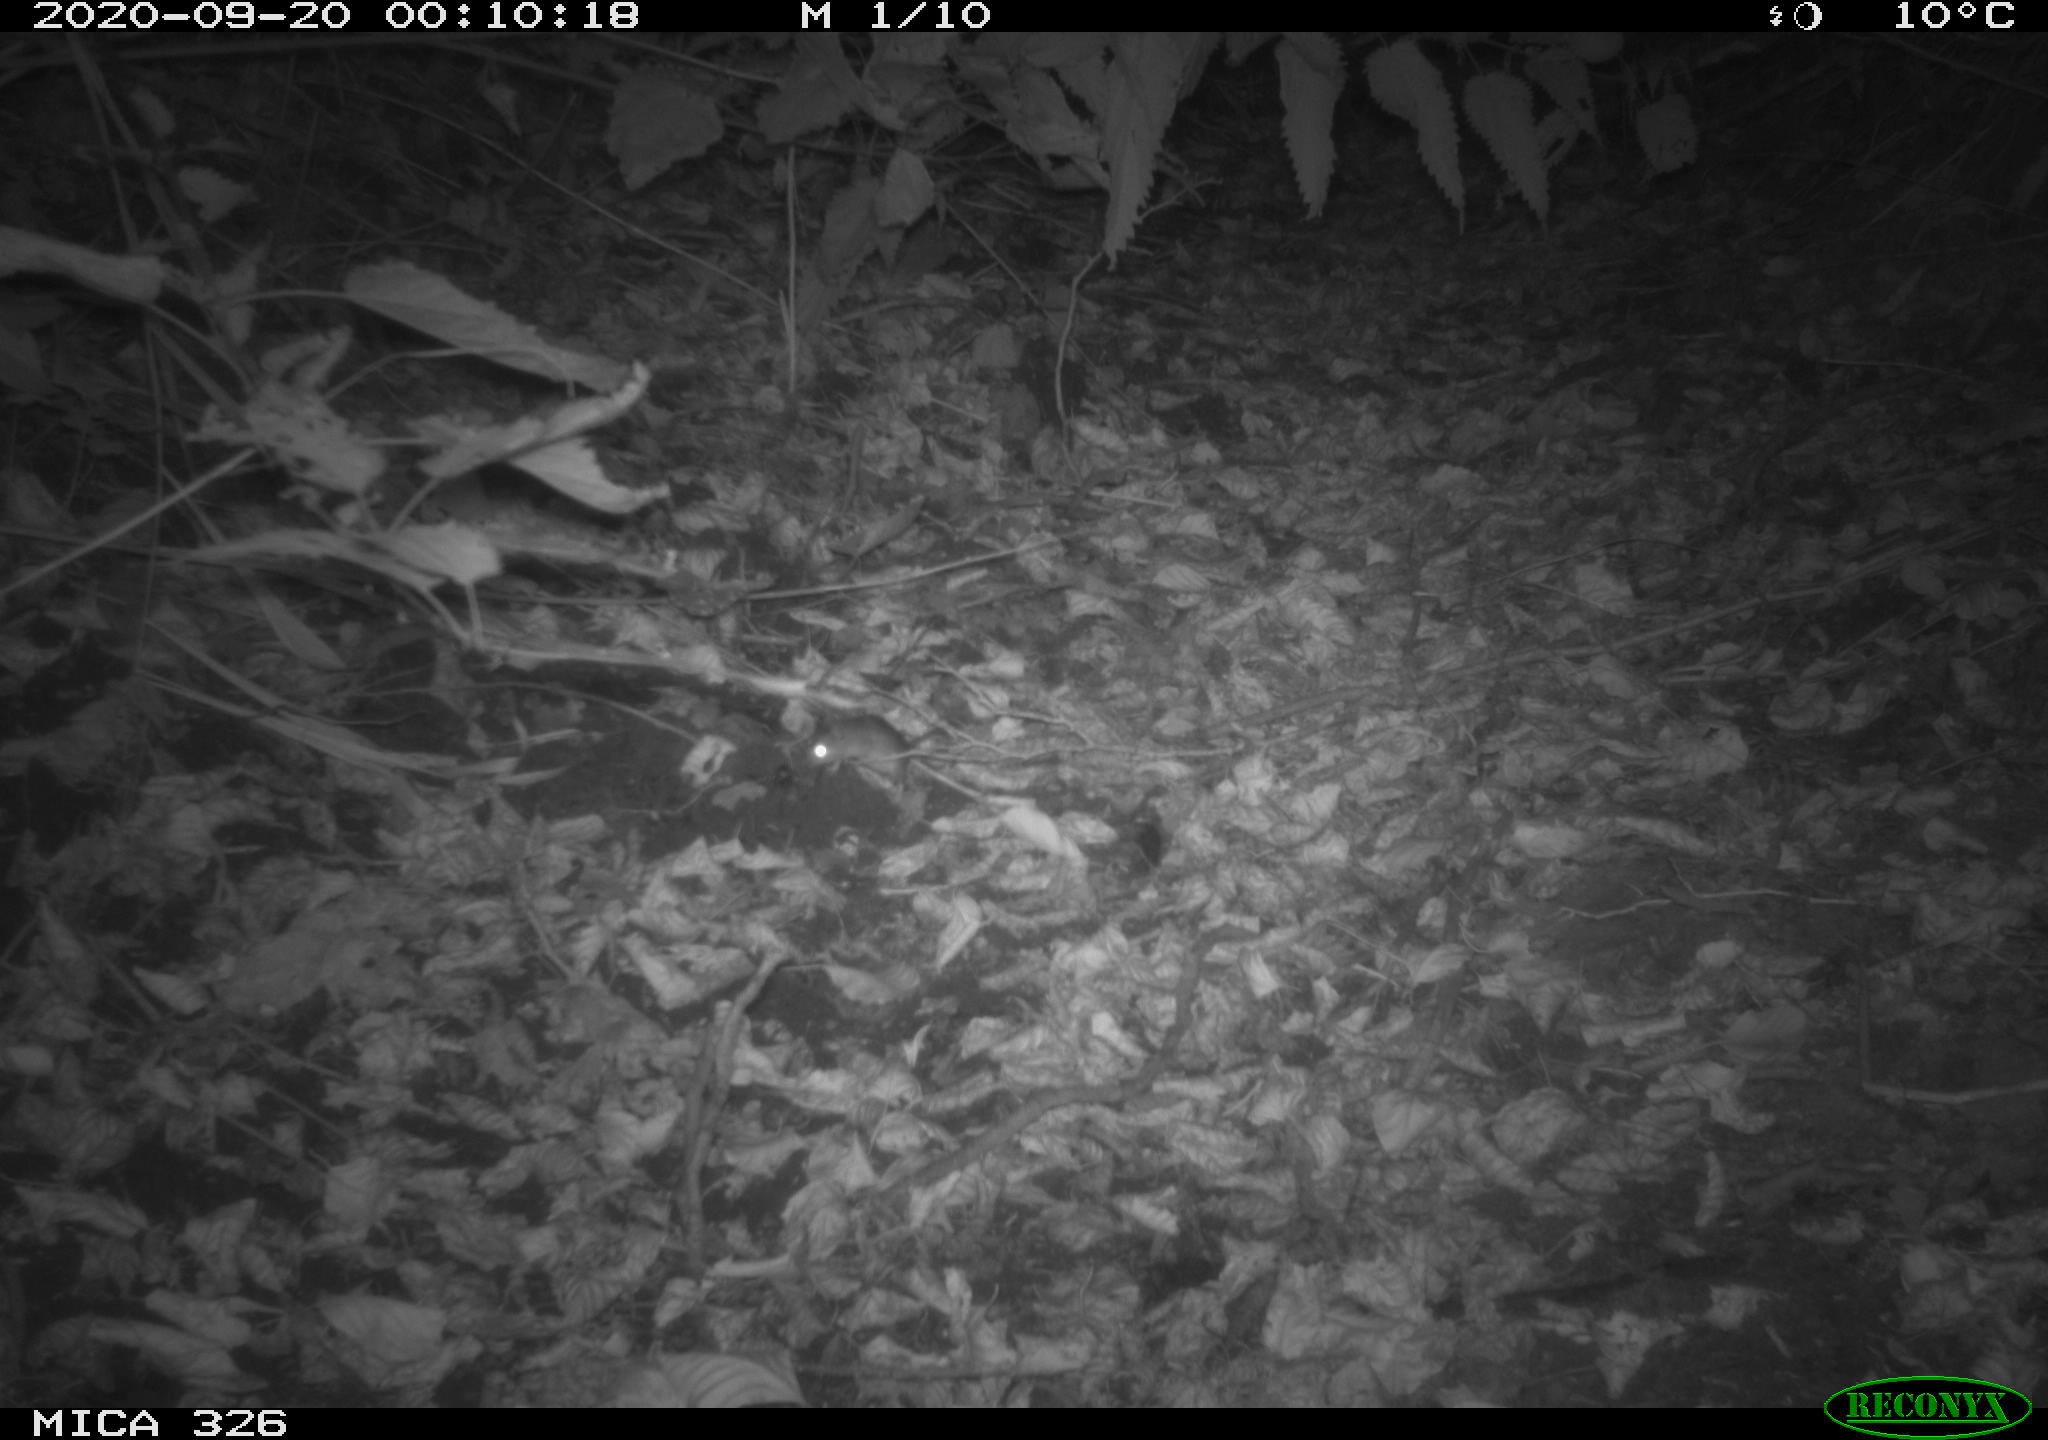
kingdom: Animalia
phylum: Chordata
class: Mammalia
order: Rodentia
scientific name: Rodentia
